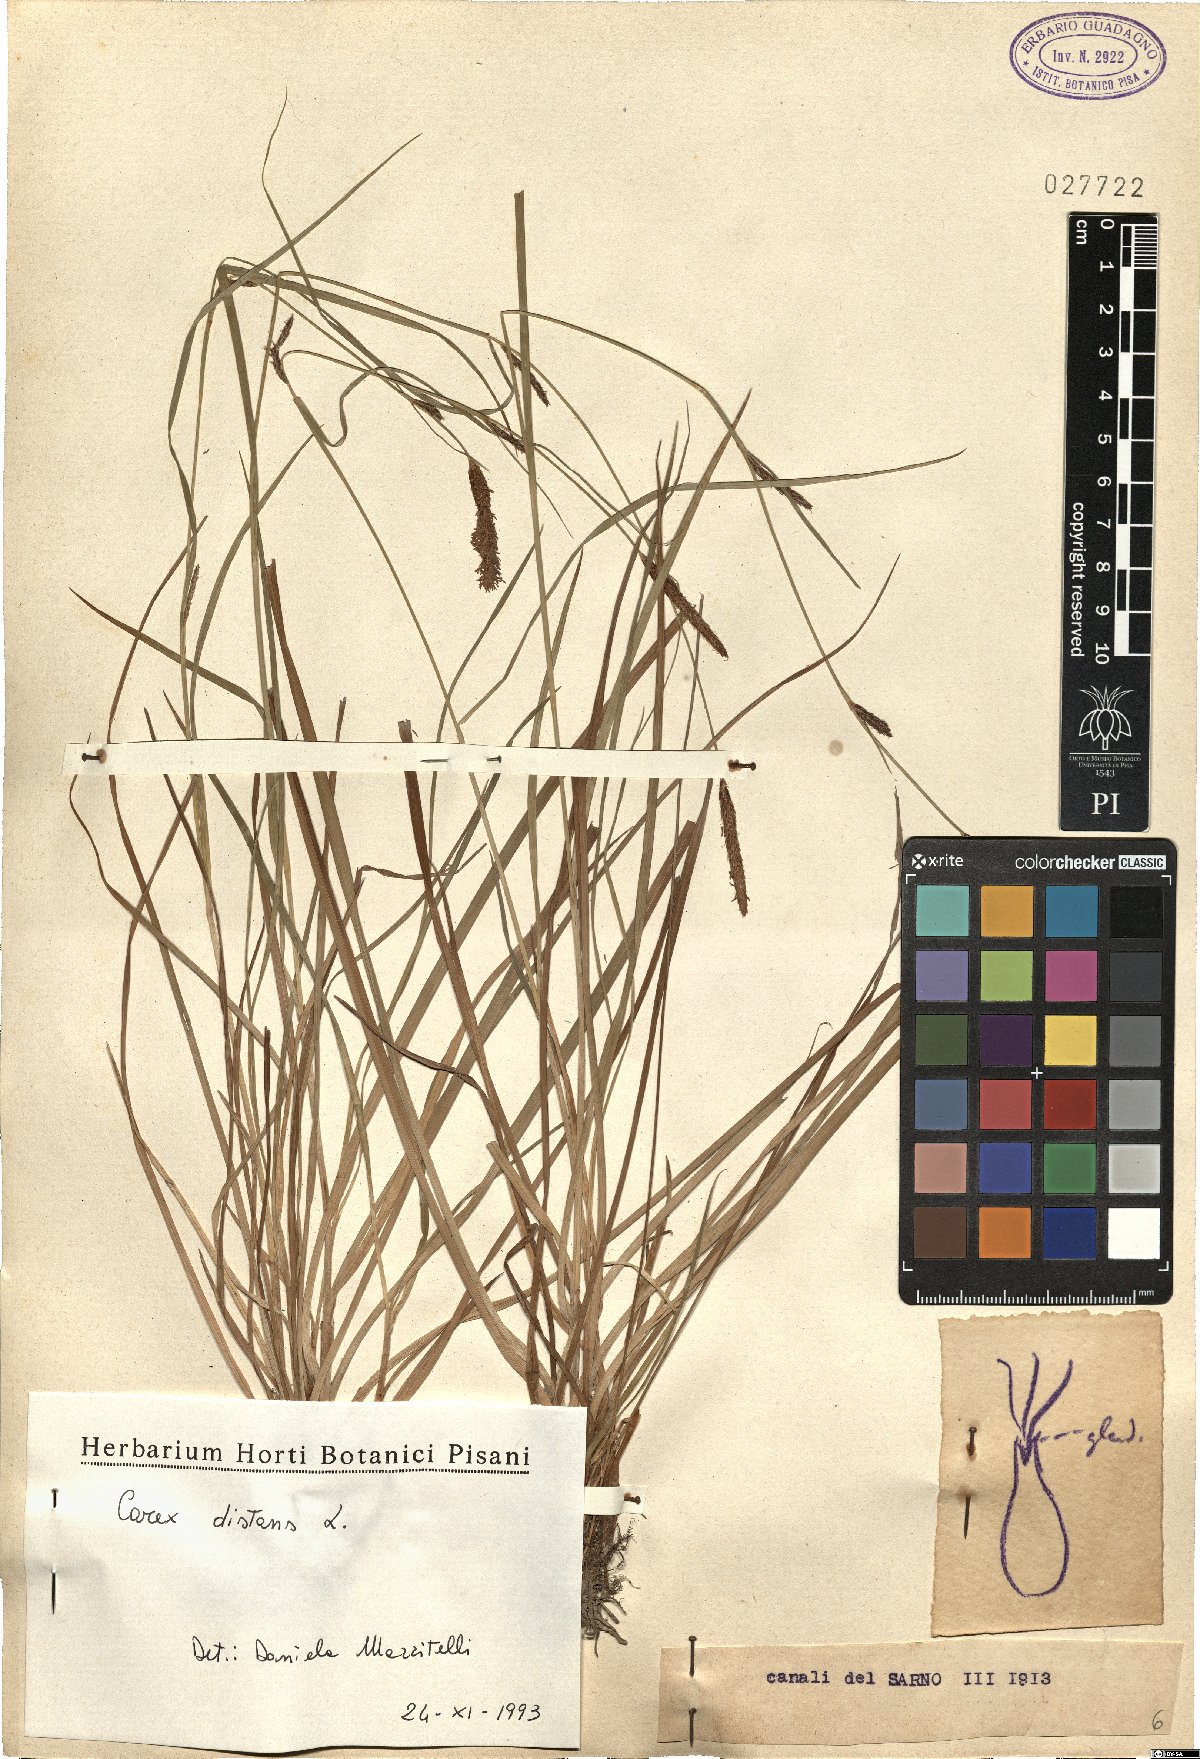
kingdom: Plantae
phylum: Tracheophyta
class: Liliopsida
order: Poales
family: Cyperaceae
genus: Carex
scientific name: Carex distans
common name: Distant sedge
